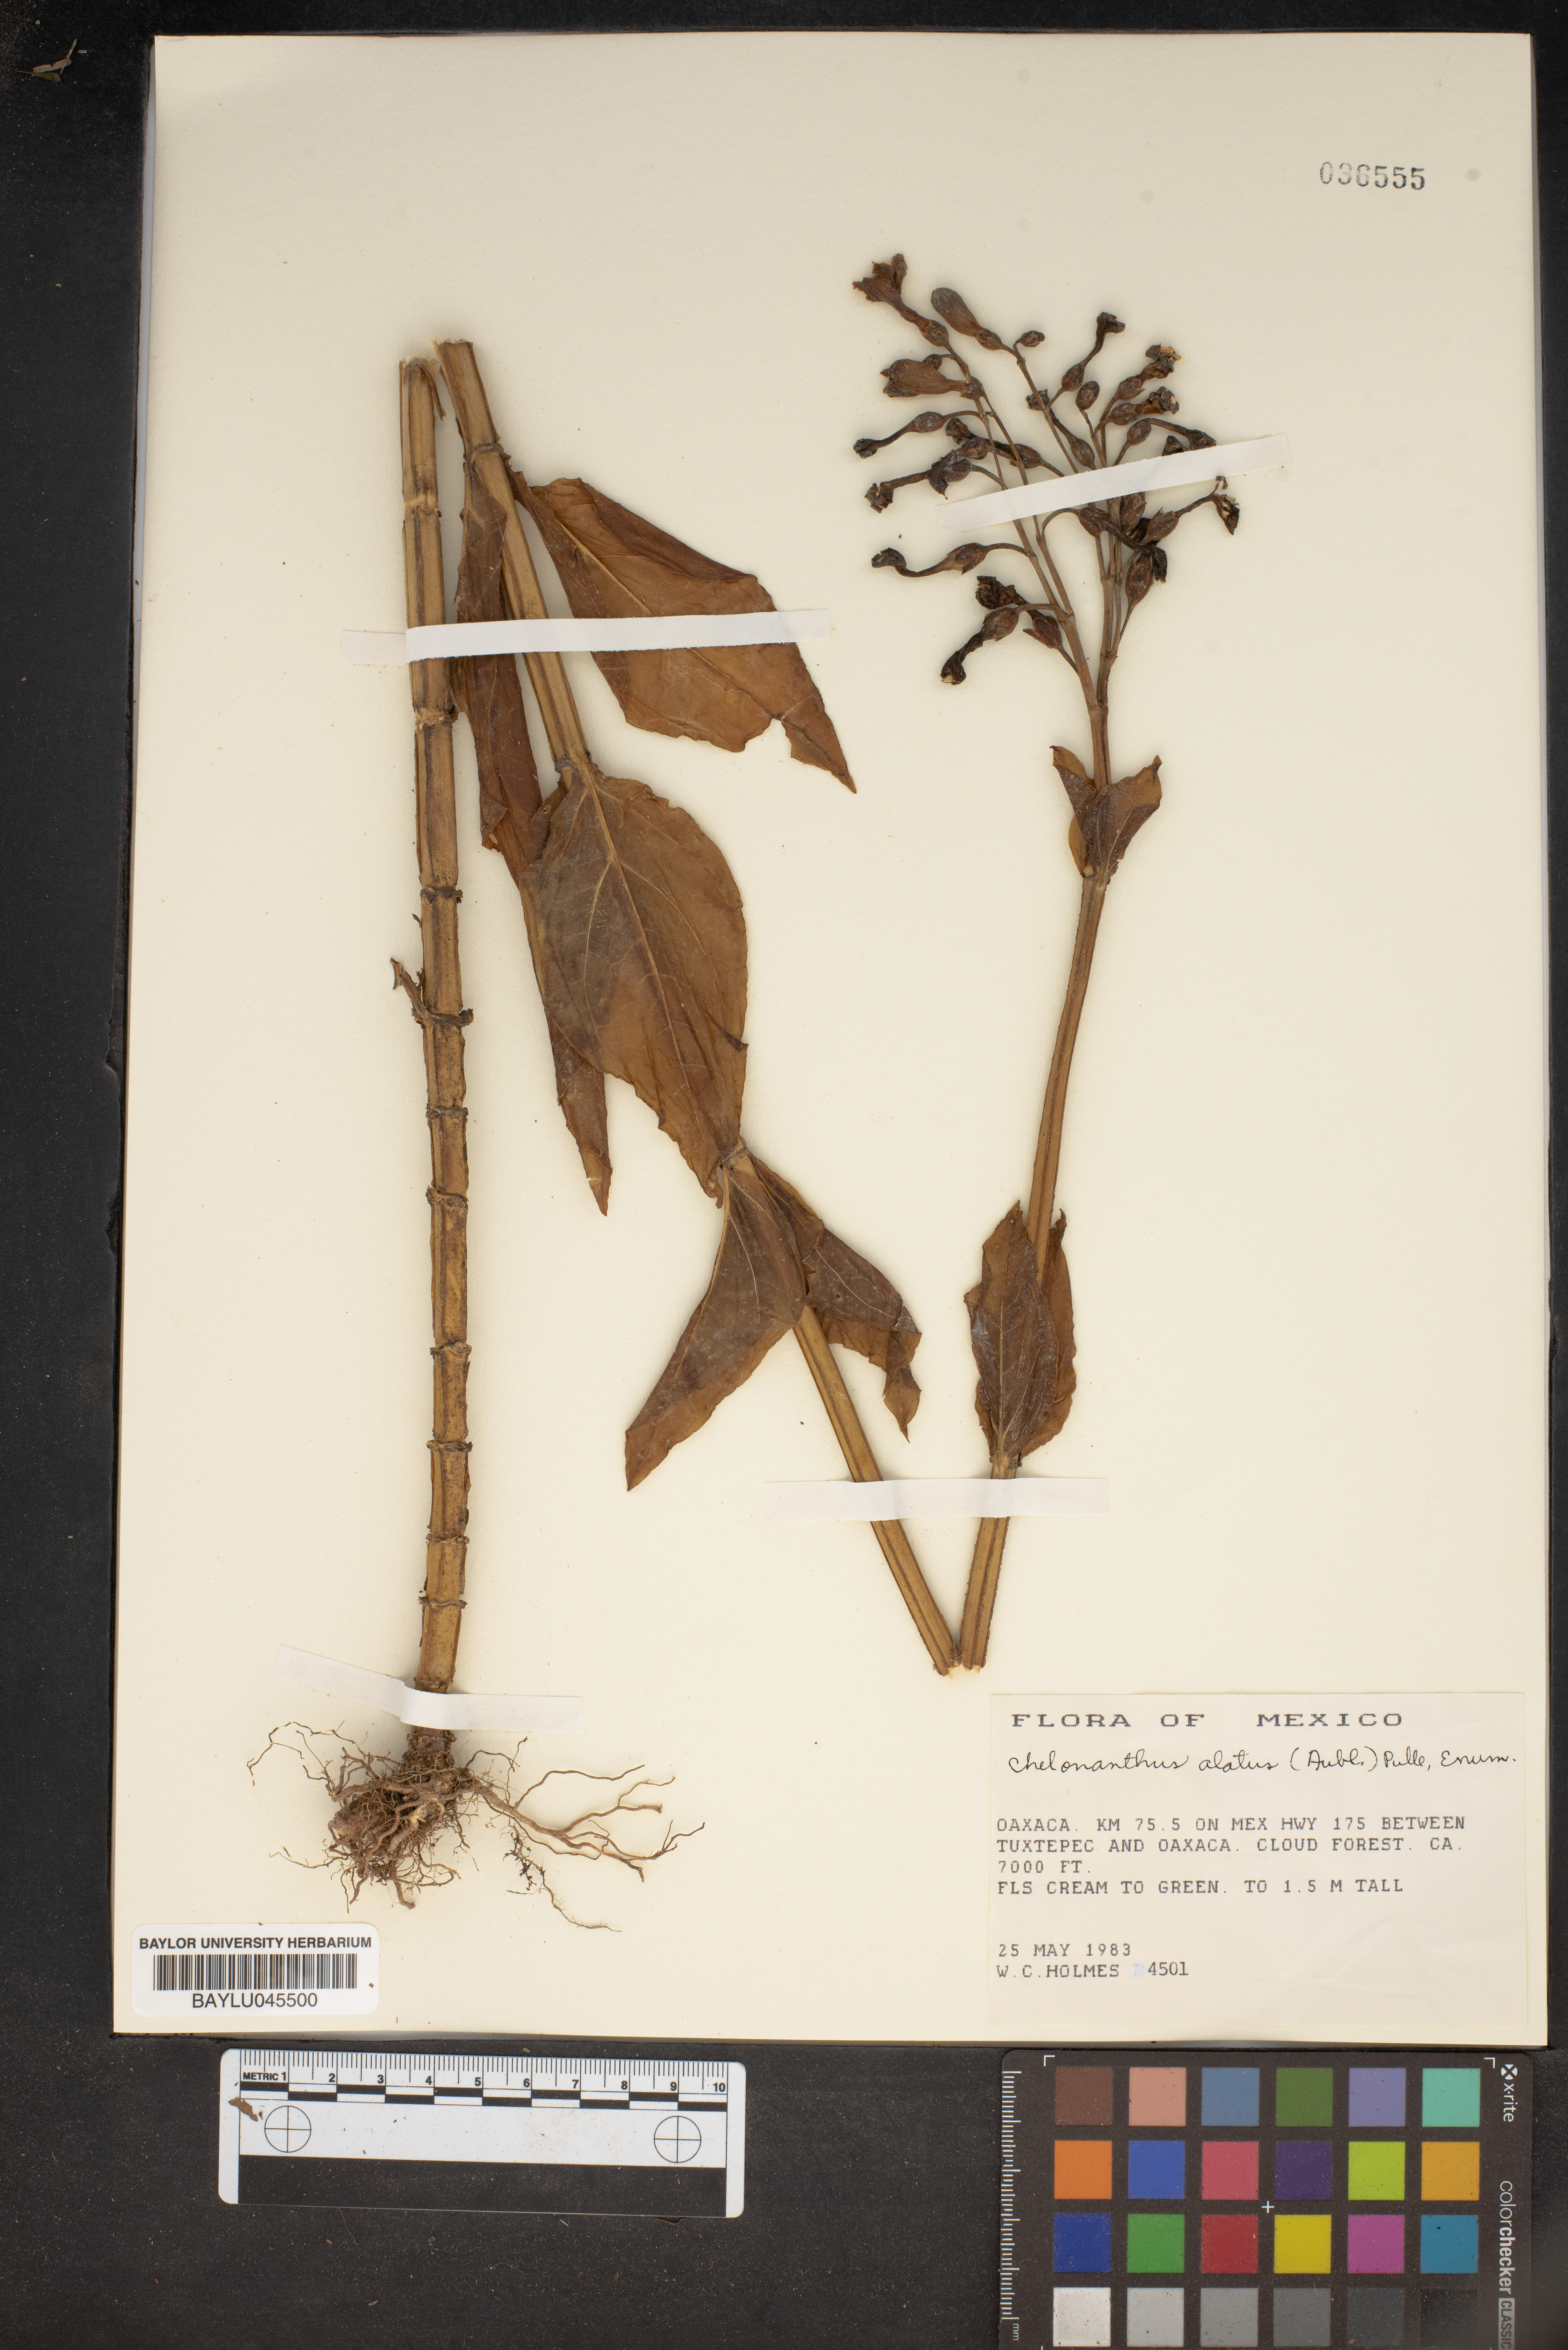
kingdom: Plantae
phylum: Tracheophyta
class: Magnoliopsida
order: Gentianales
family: Gentianaceae
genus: Chelonanthus
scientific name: Chelonanthus alatus
